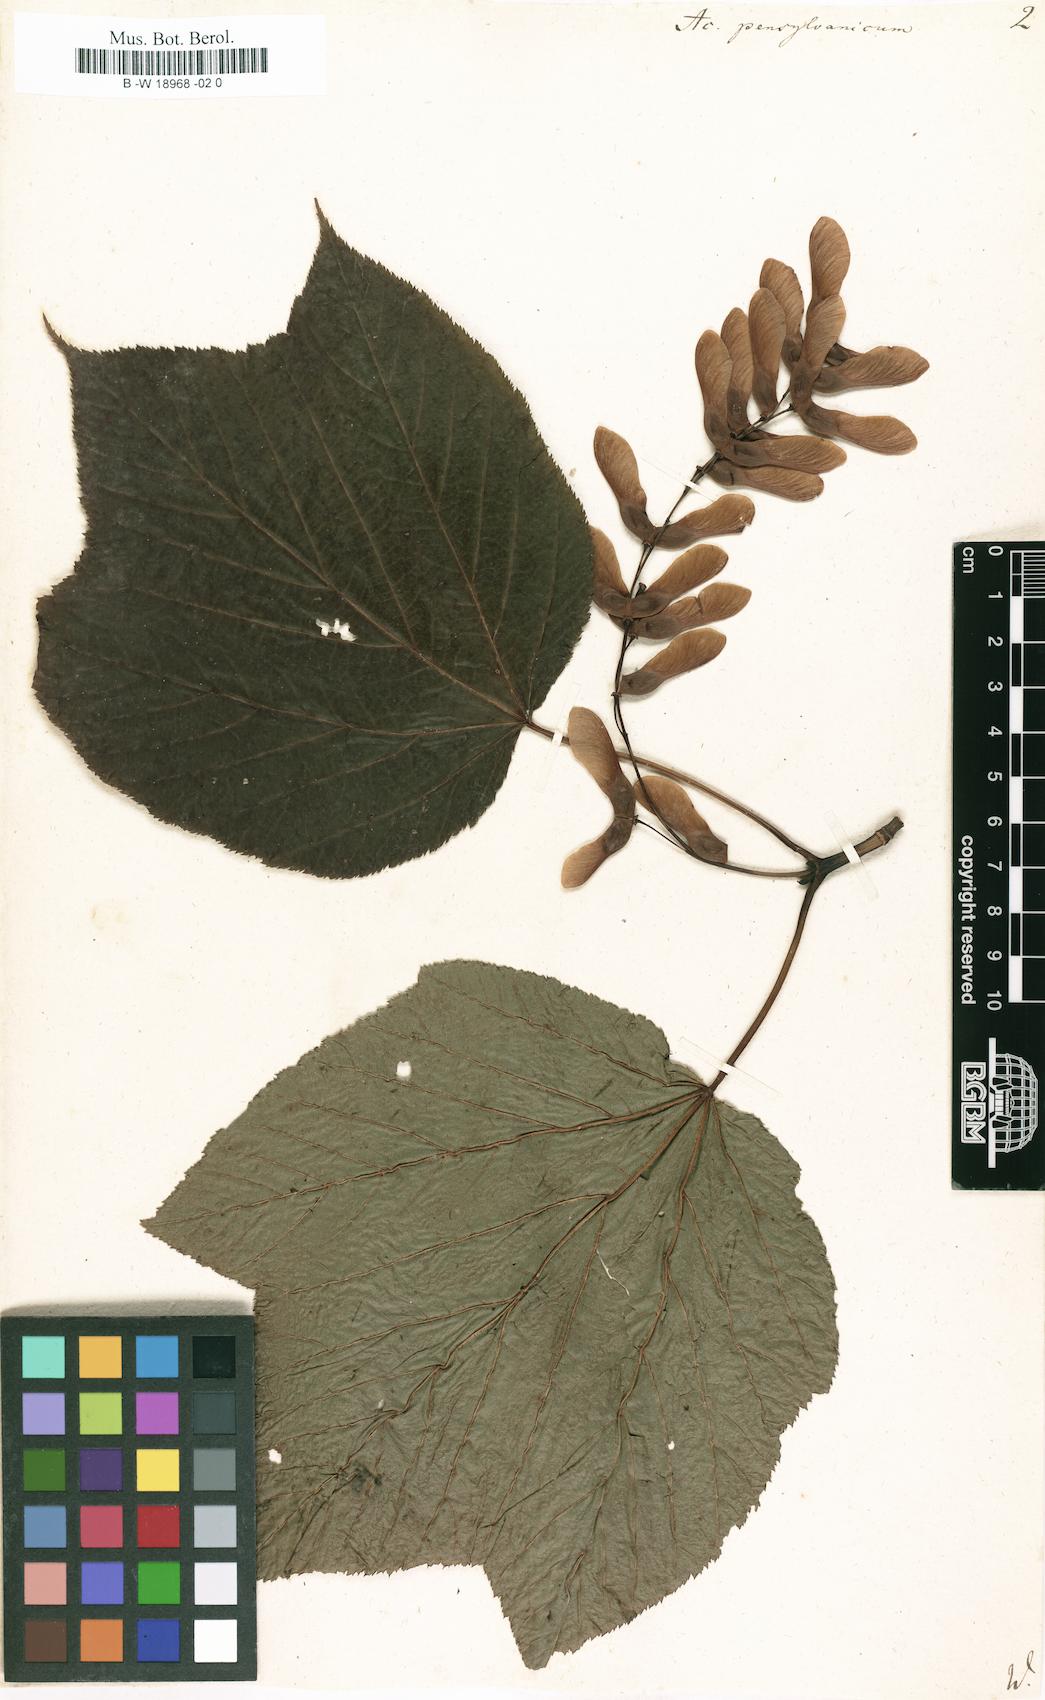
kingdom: Plantae
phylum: Tracheophyta
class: Magnoliopsida
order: Sapindales
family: Sapindaceae
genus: Acer
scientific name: Acer pensylvanicum
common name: Moosewood
